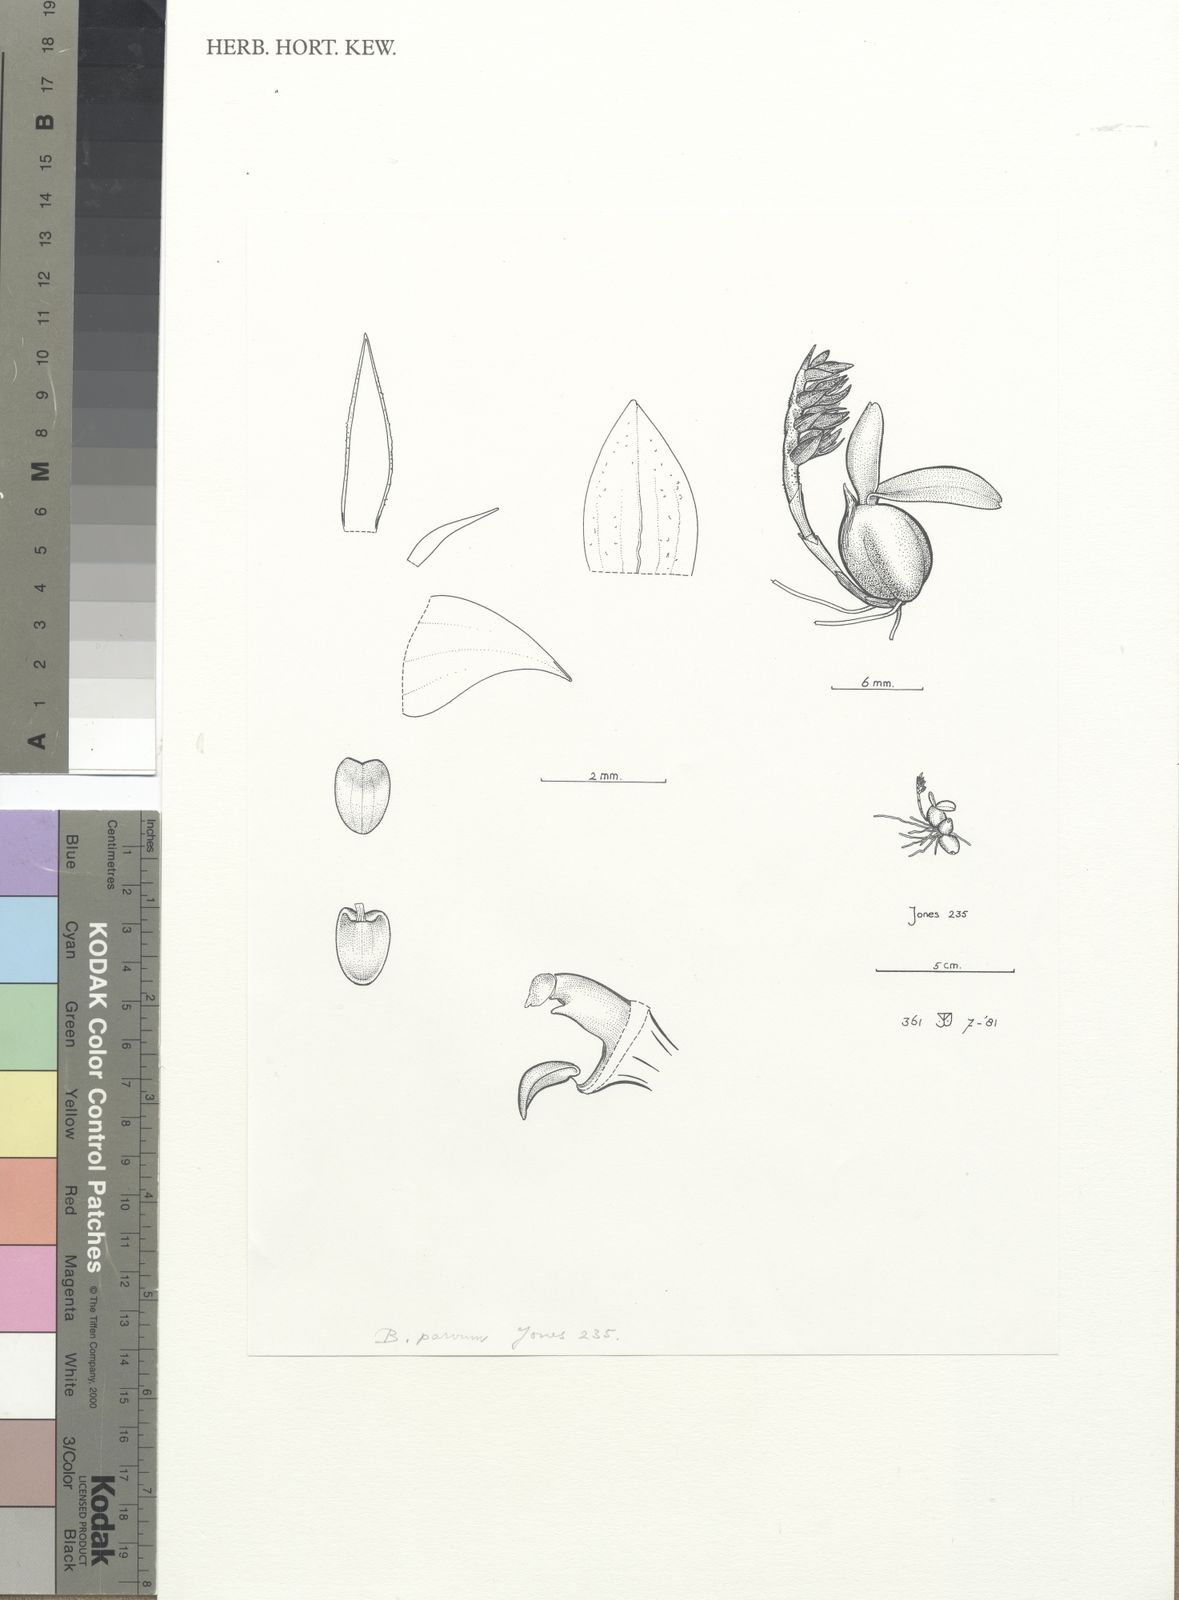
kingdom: Plantae
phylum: Tracheophyta
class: Liliopsida
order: Asparagales
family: Orchidaceae
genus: Bulbophyllum
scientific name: Bulbophyllum parvum
